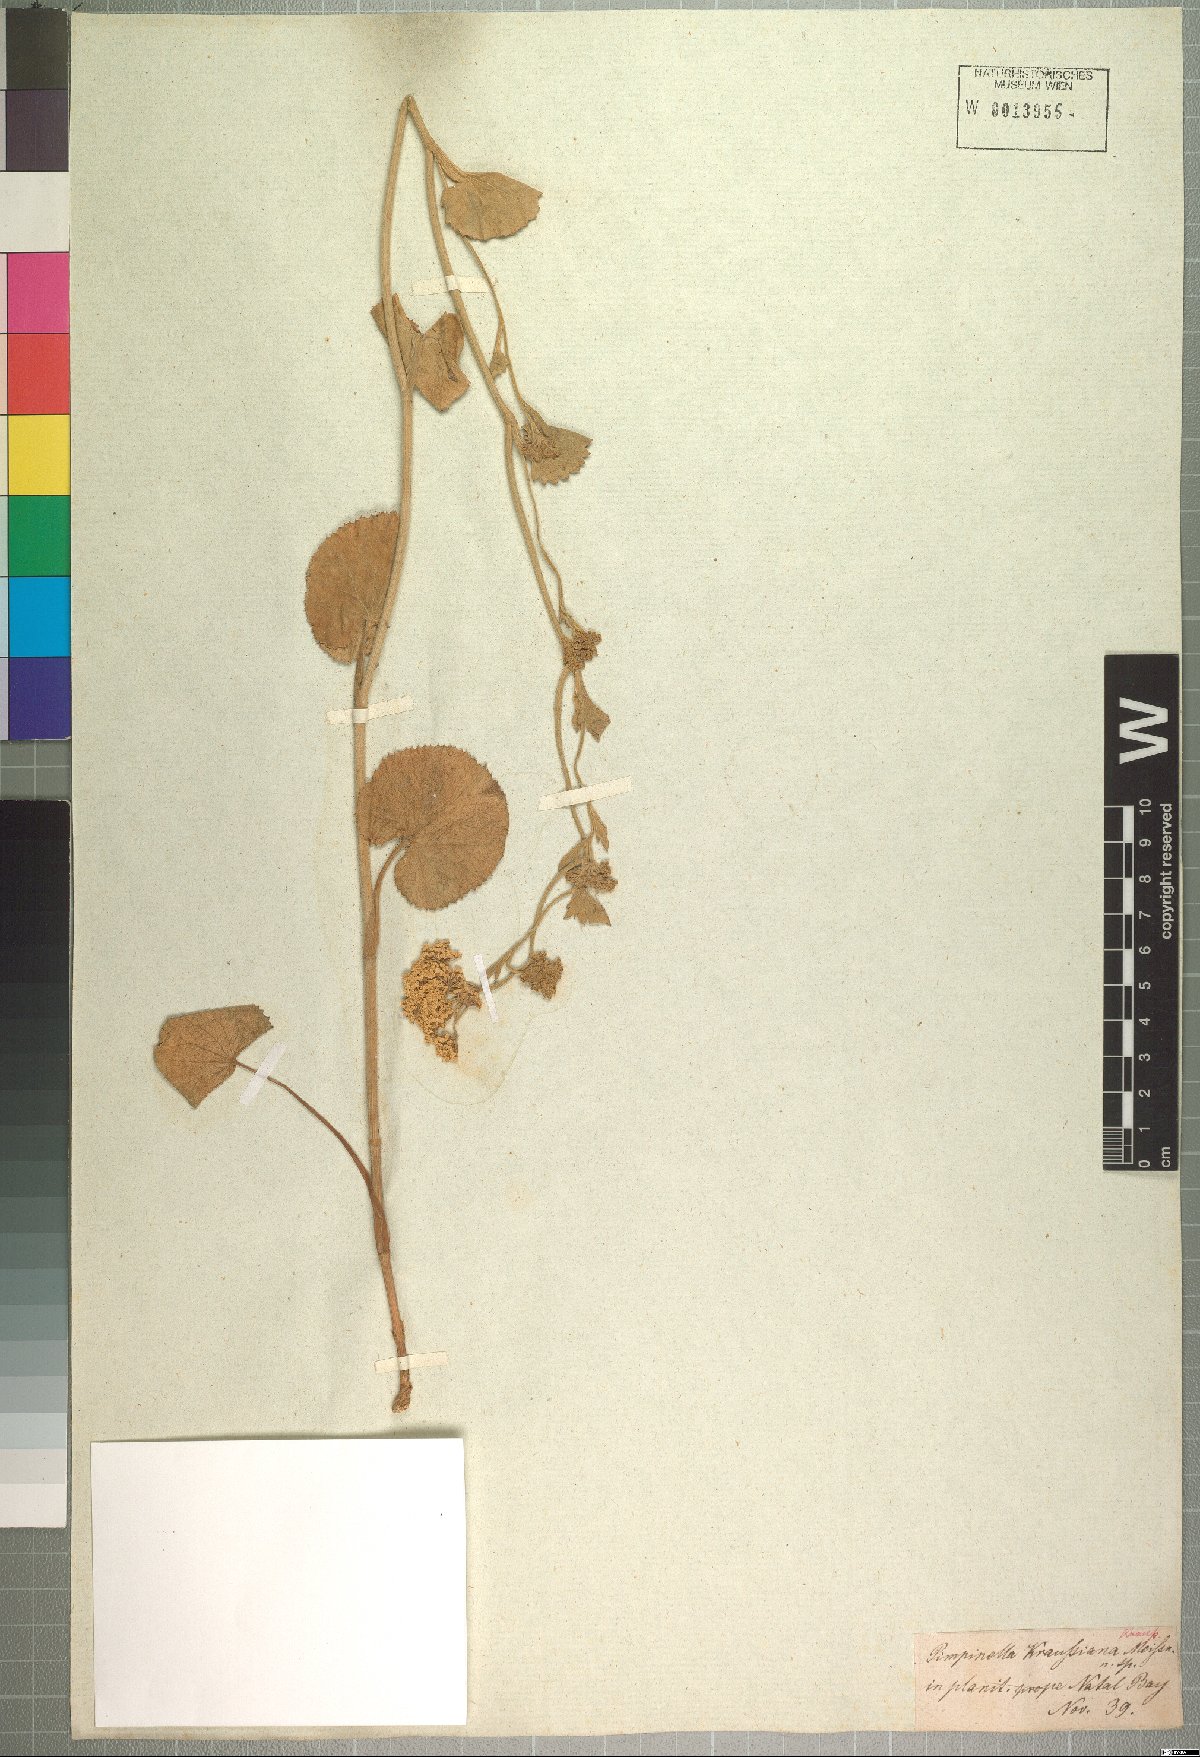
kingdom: Plantae
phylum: Tracheophyta
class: Magnoliopsida
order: Apiales
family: Apiaceae
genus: Pimpinella
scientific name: Pimpinella caffra
